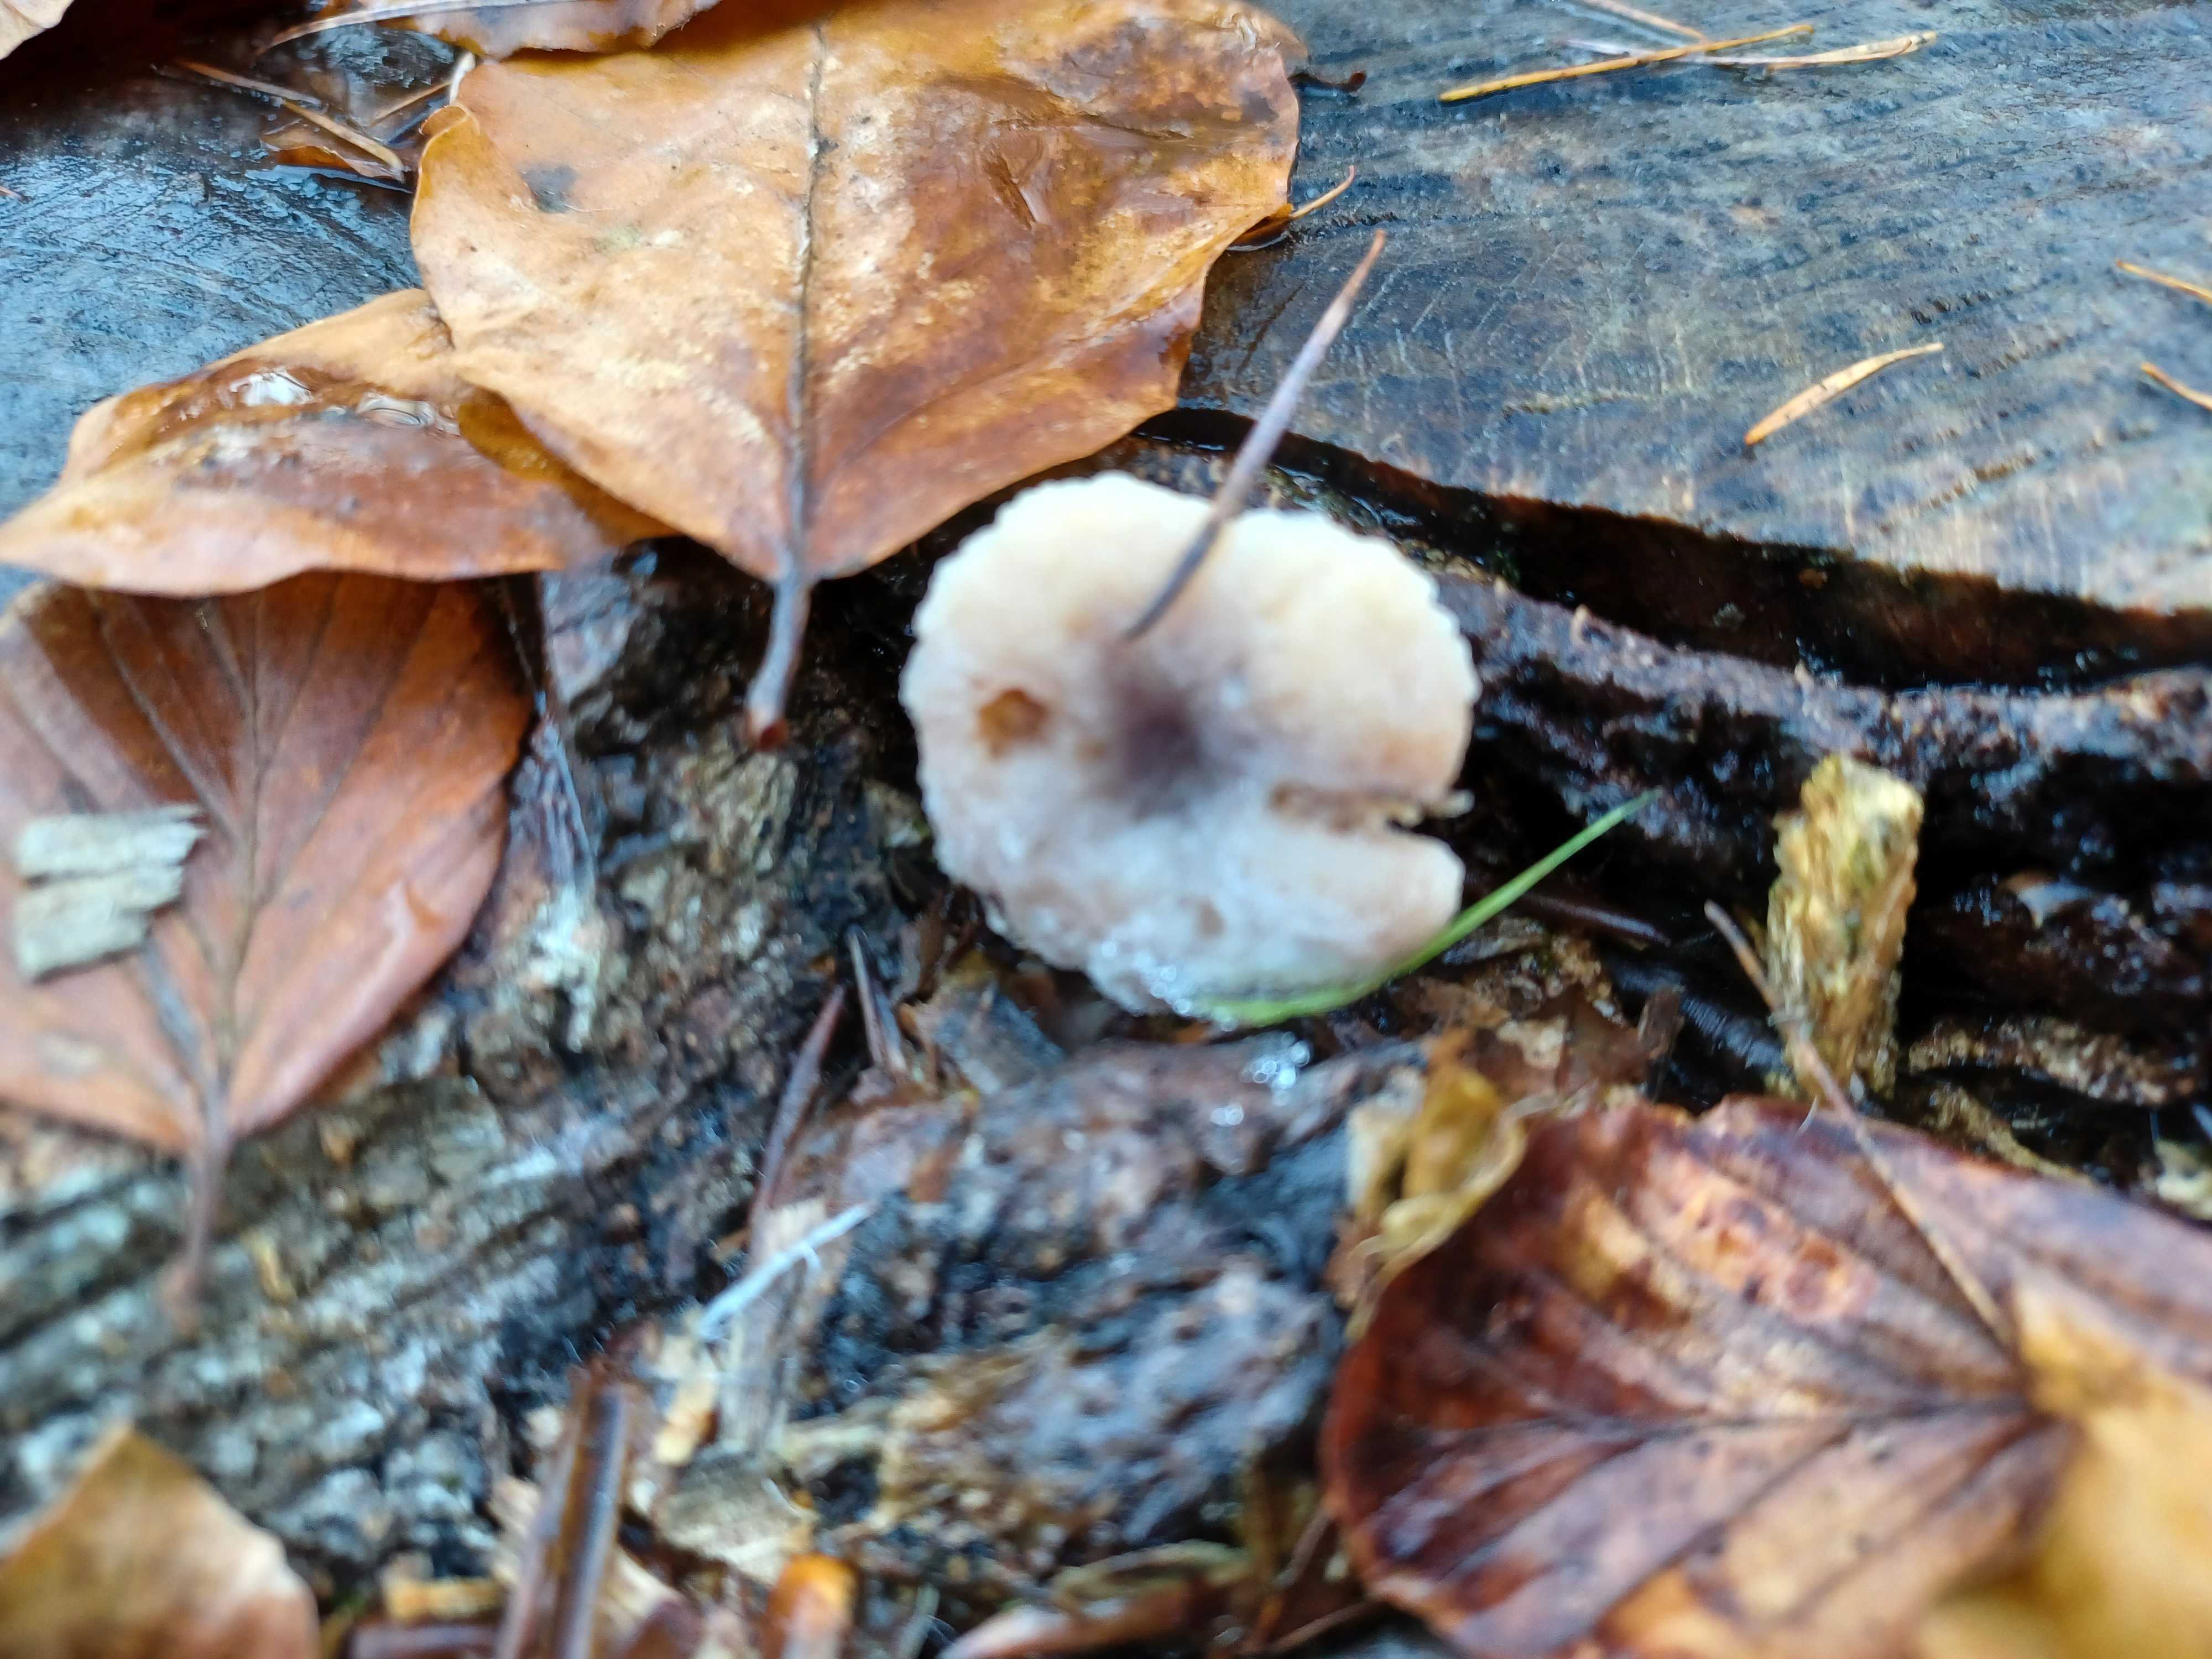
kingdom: Fungi
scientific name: Fungi
